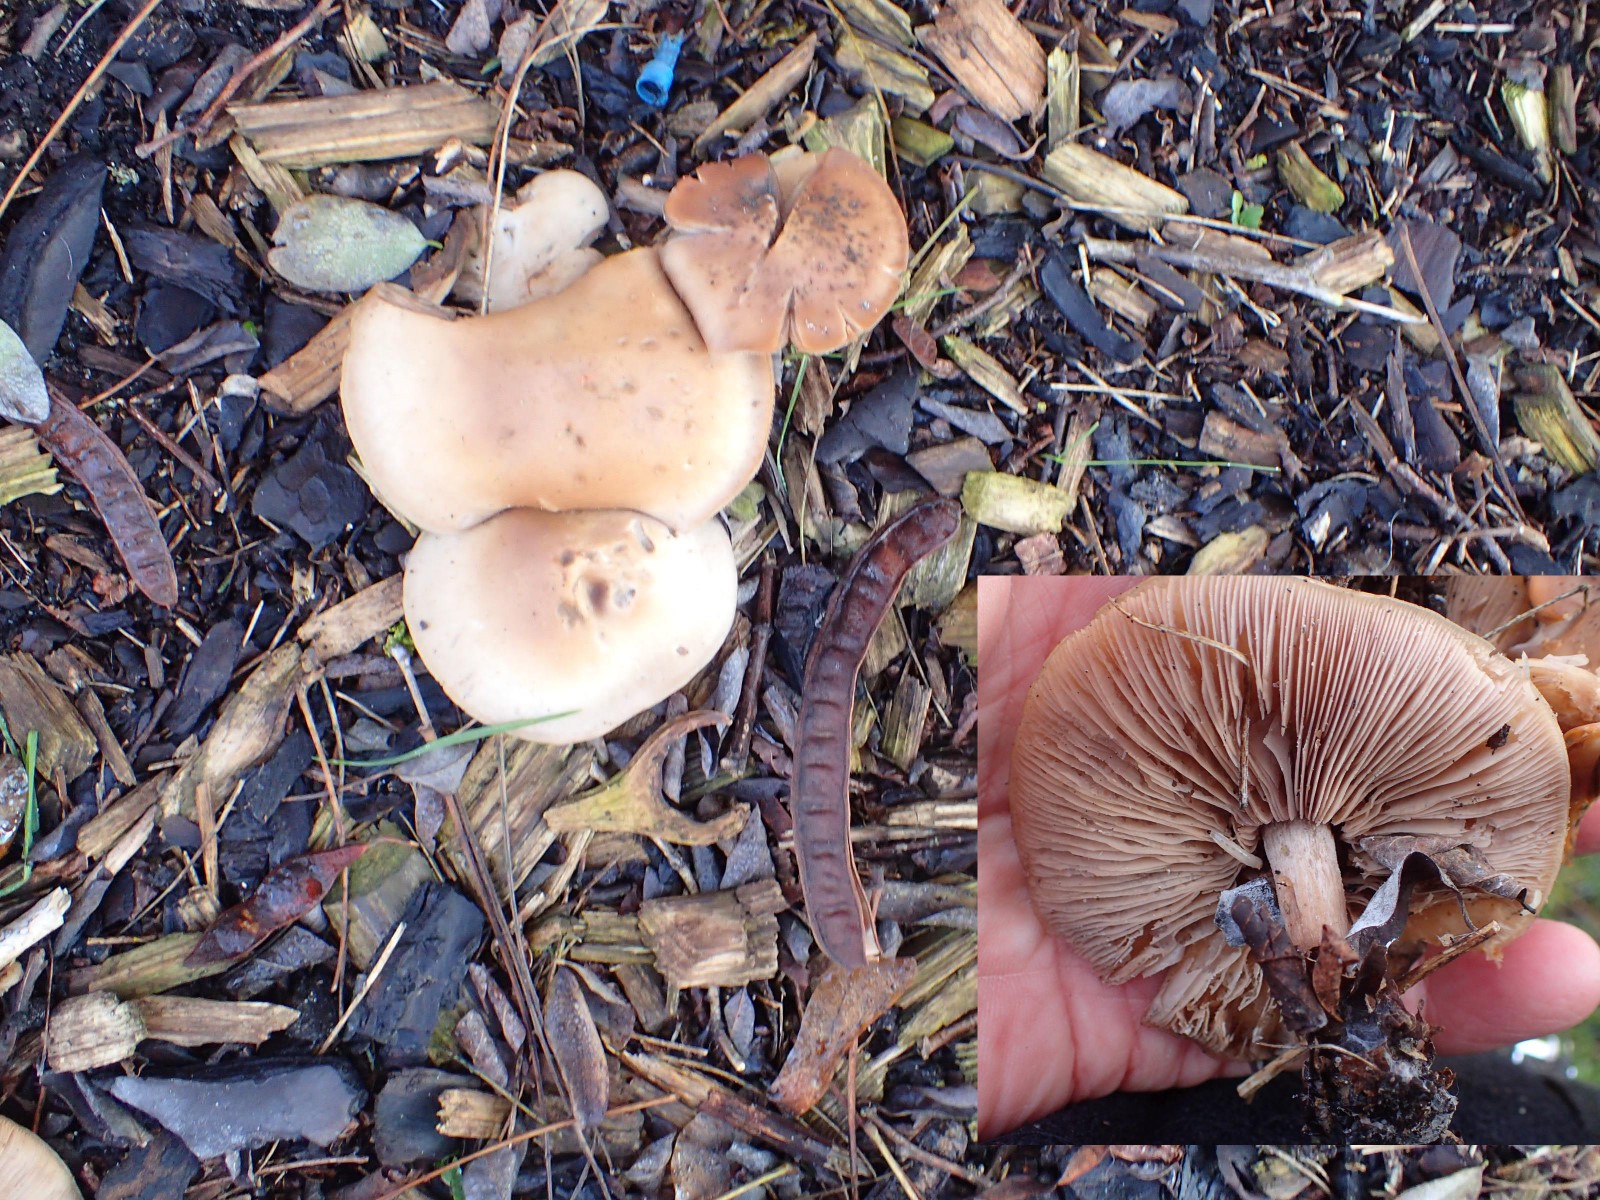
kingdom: Fungi
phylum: Basidiomycota
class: Agaricomycetes
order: Agaricales
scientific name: Agaricales
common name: champignonordenen
